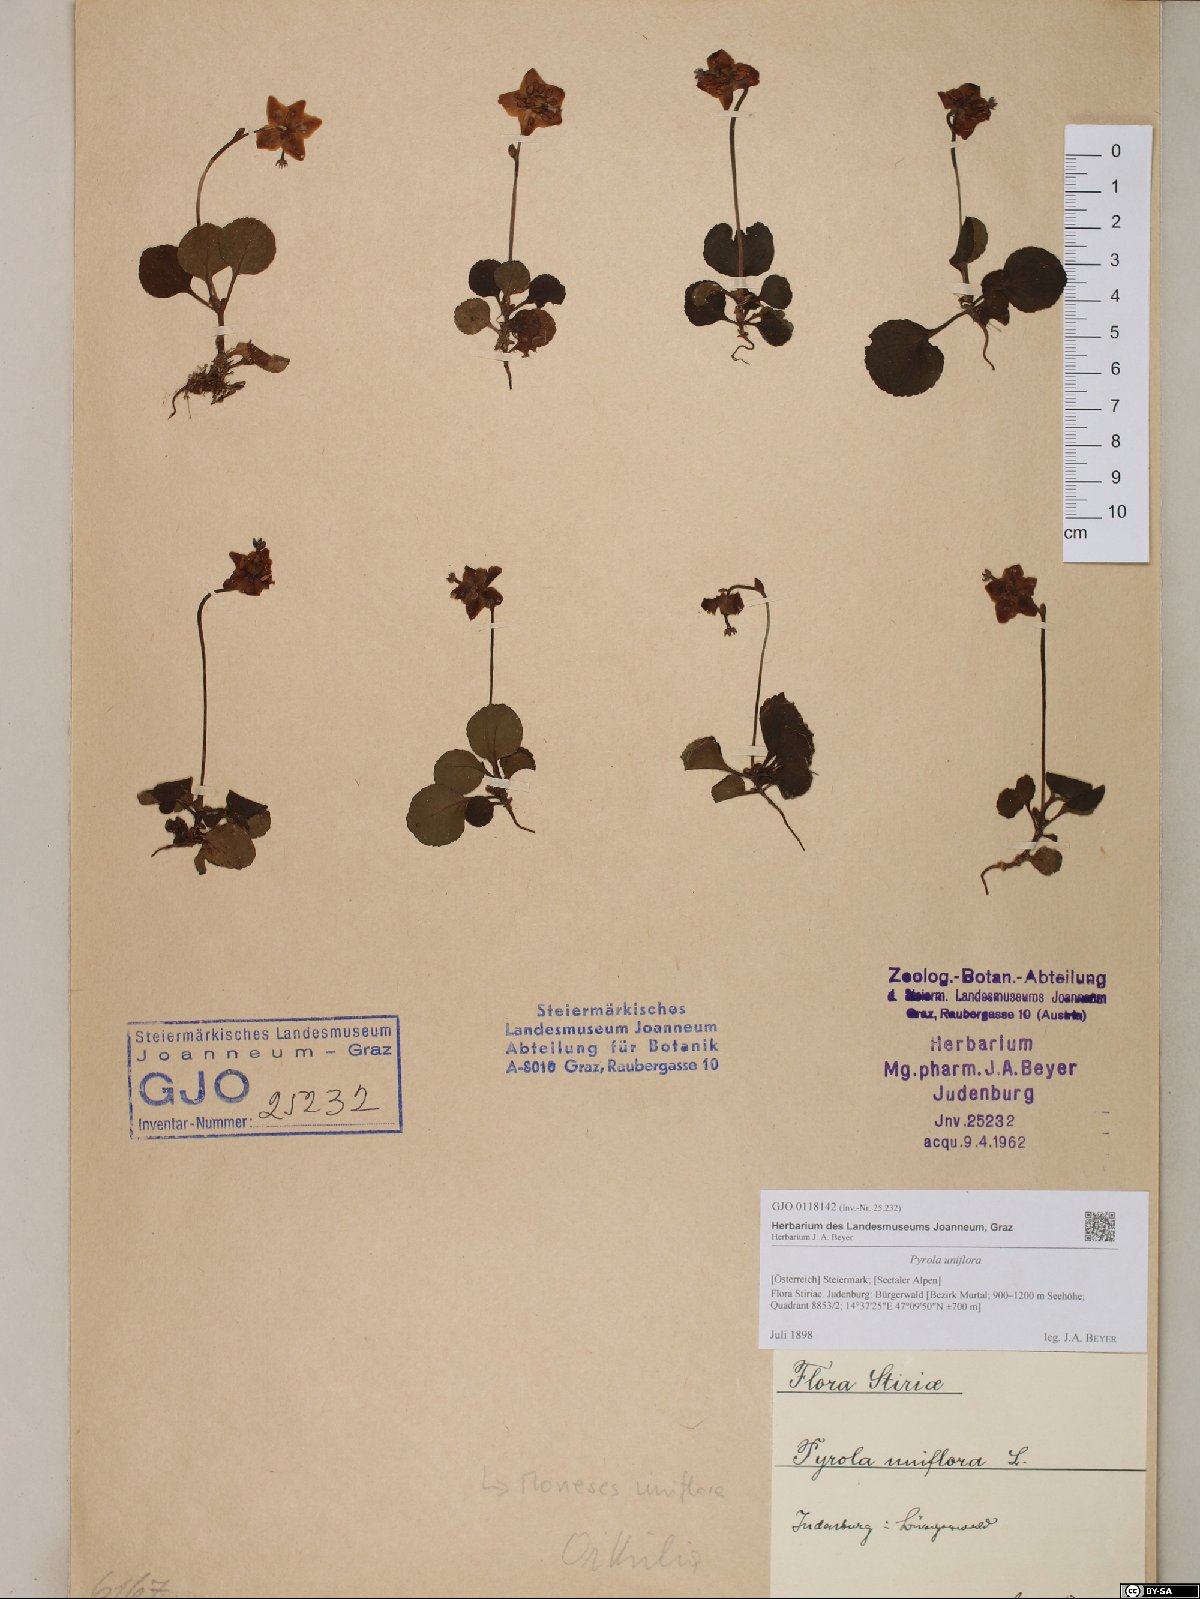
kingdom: Plantae
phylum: Tracheophyta
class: Magnoliopsida
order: Ericales
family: Ericaceae
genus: Moneses
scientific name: Moneses uniflora
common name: One-flowered wintergreen
